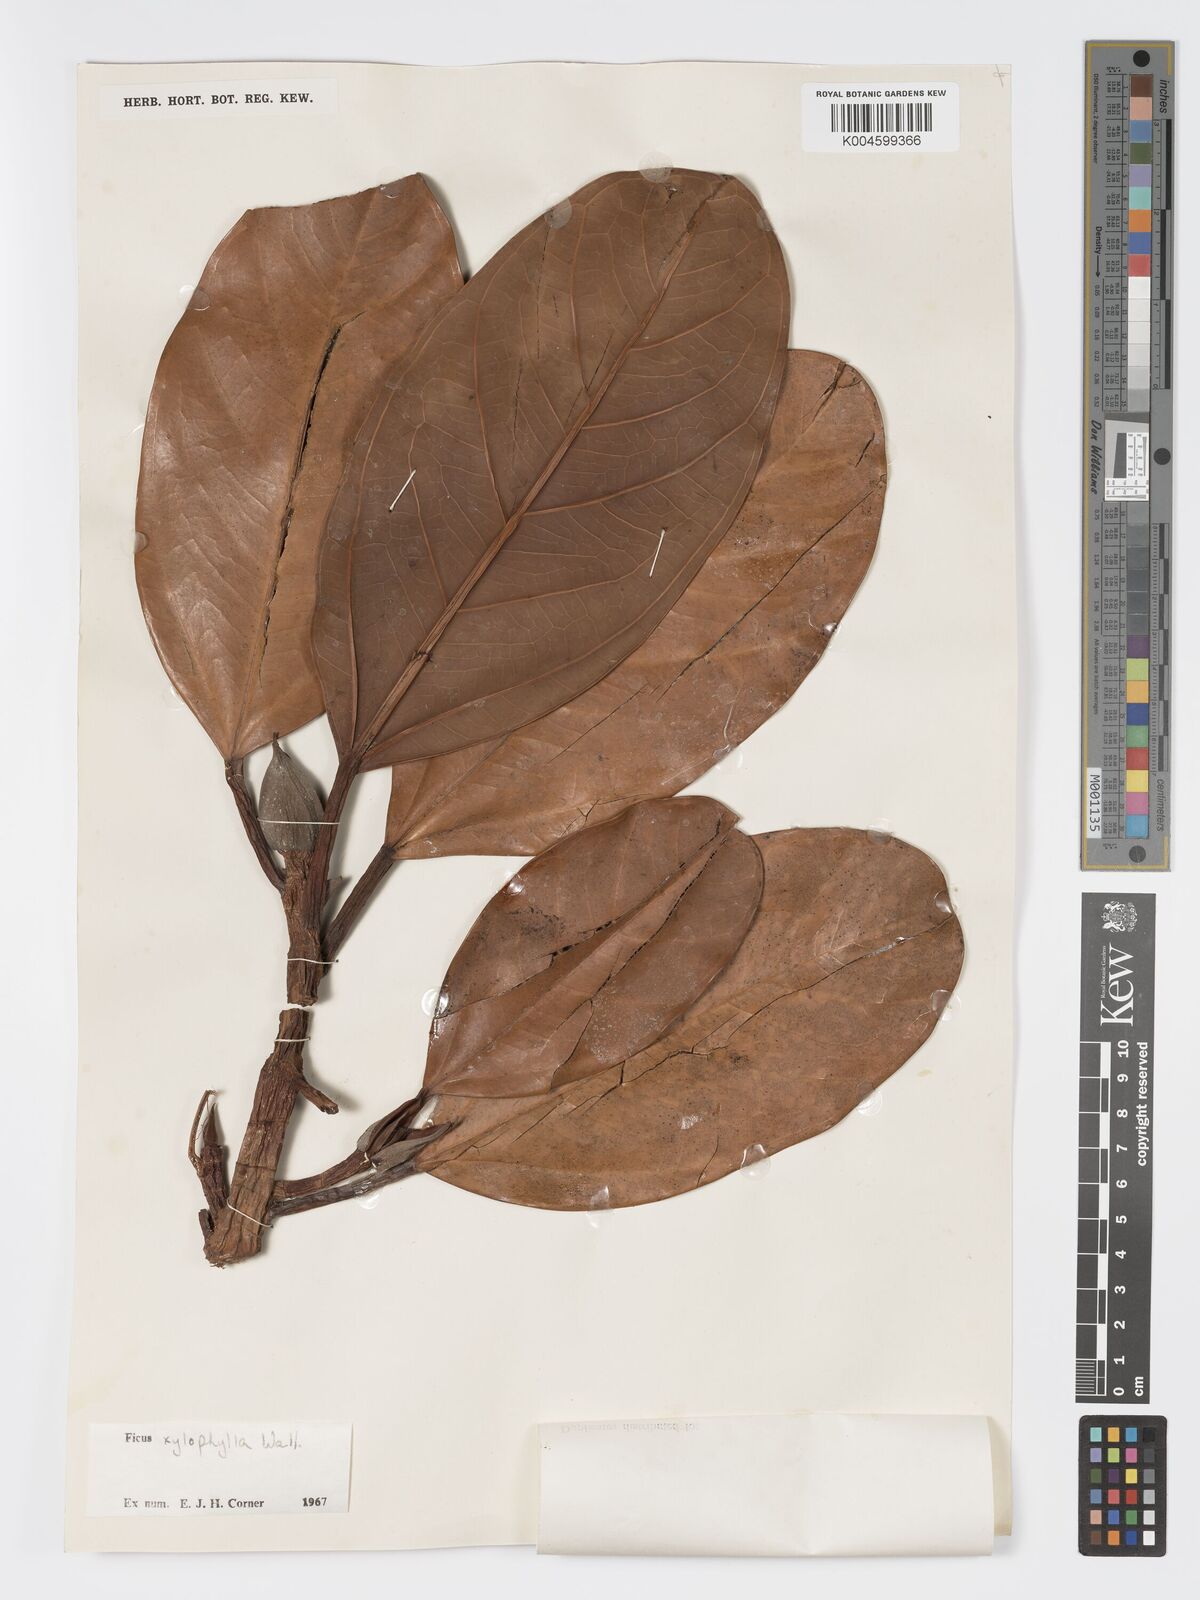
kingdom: Plantae
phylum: Tracheophyta
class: Magnoliopsida
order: Rosales
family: Moraceae
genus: Ficus
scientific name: Ficus xylophylla
